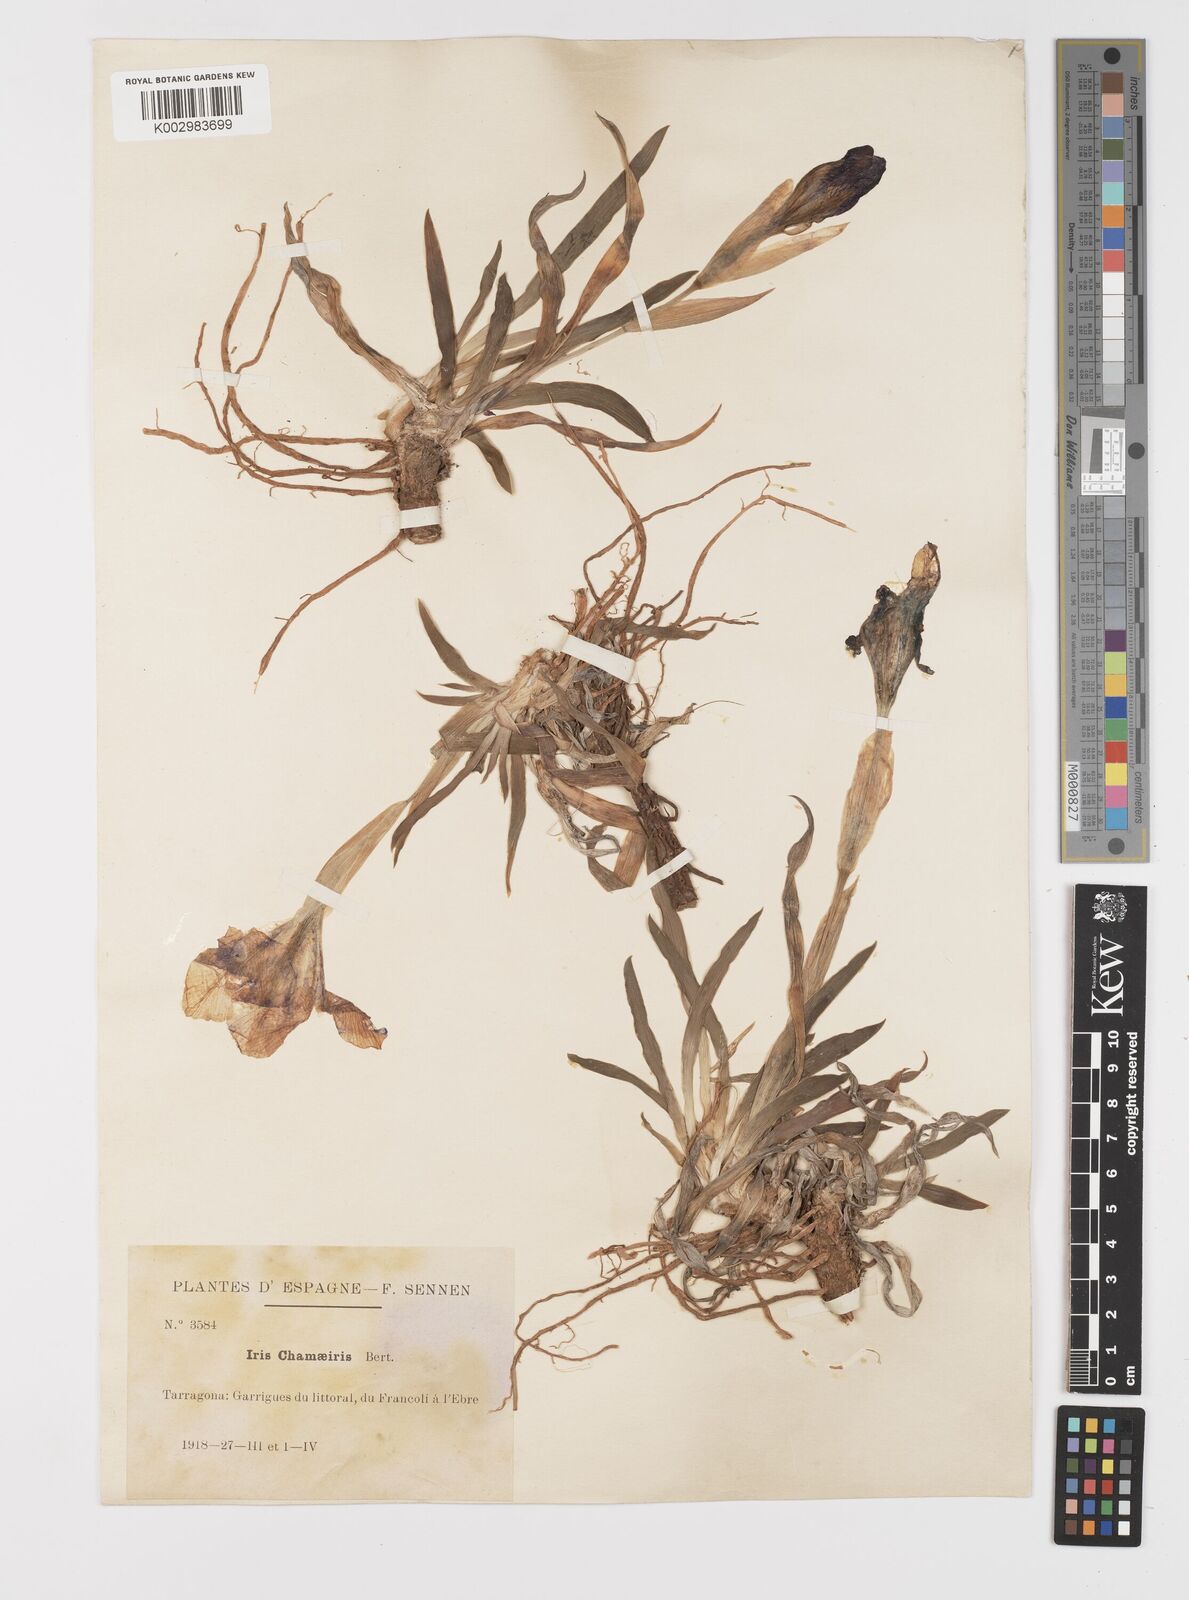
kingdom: Plantae
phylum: Tracheophyta
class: Liliopsida
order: Asparagales
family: Iridaceae
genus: Iris
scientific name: Iris lutescens
